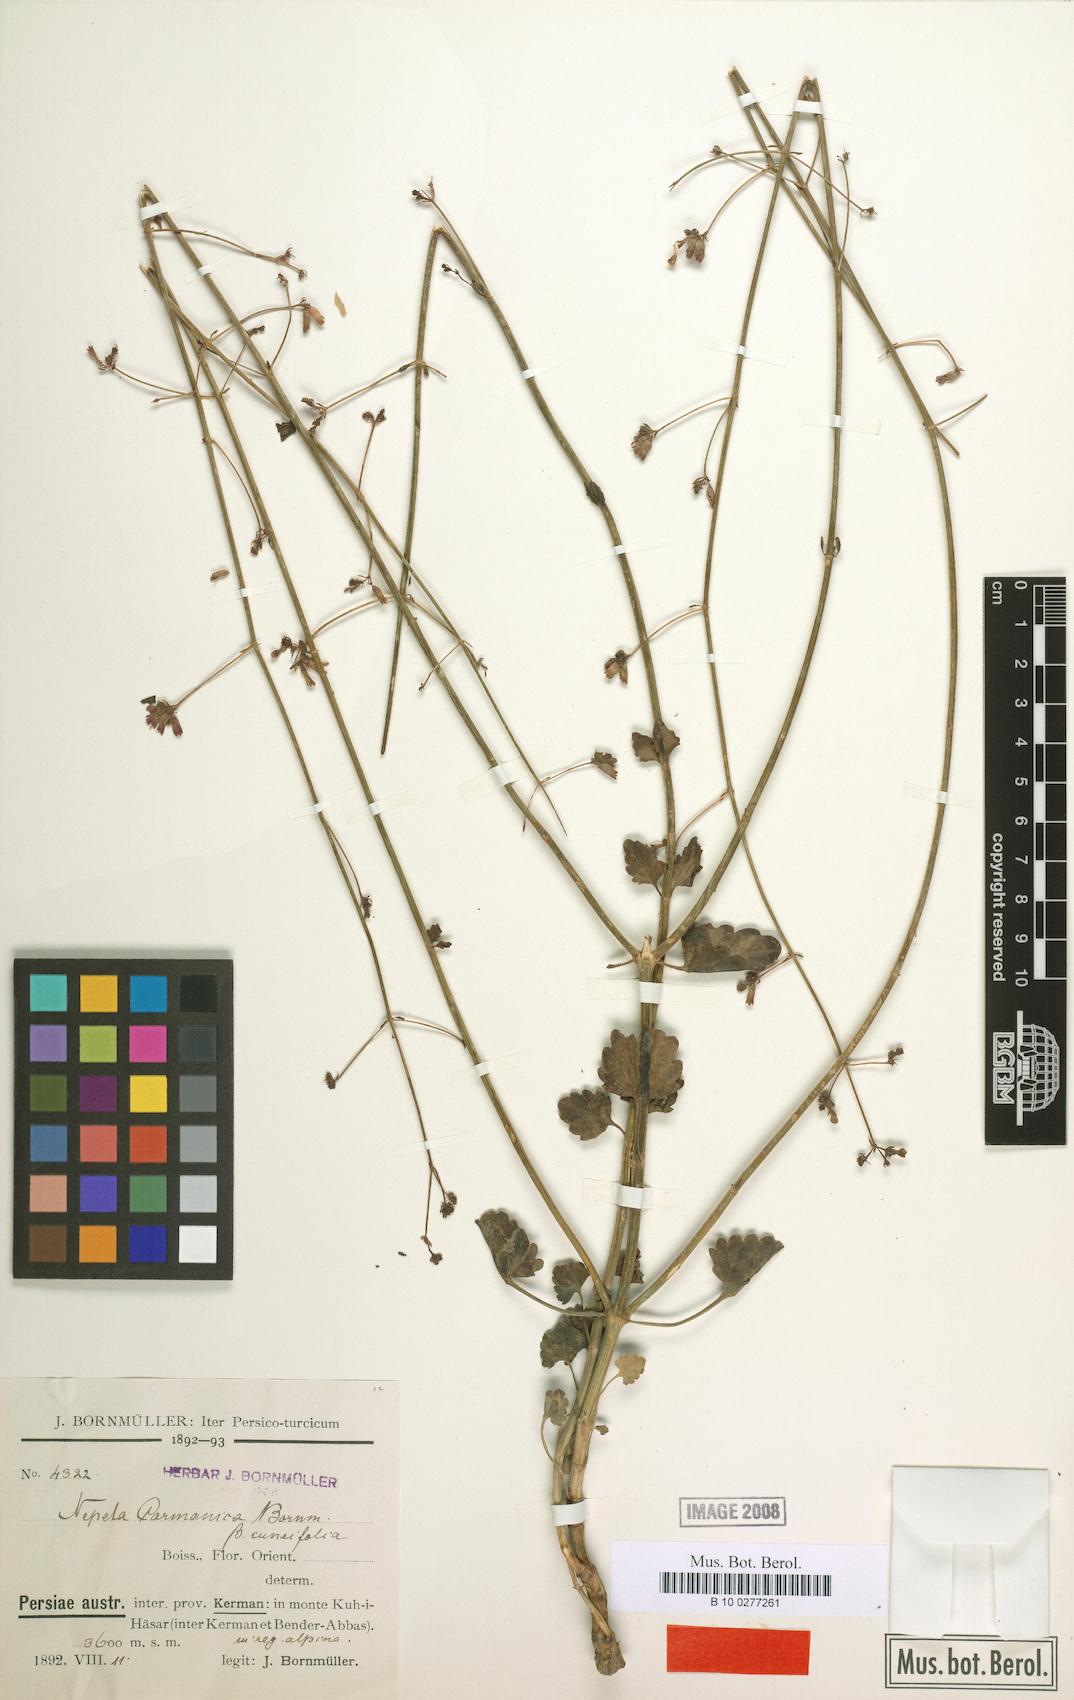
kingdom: Plantae
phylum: Tracheophyta
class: Magnoliopsida
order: Lamiales
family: Lamiaceae
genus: Nepeta
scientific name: Nepeta teucriifolia
